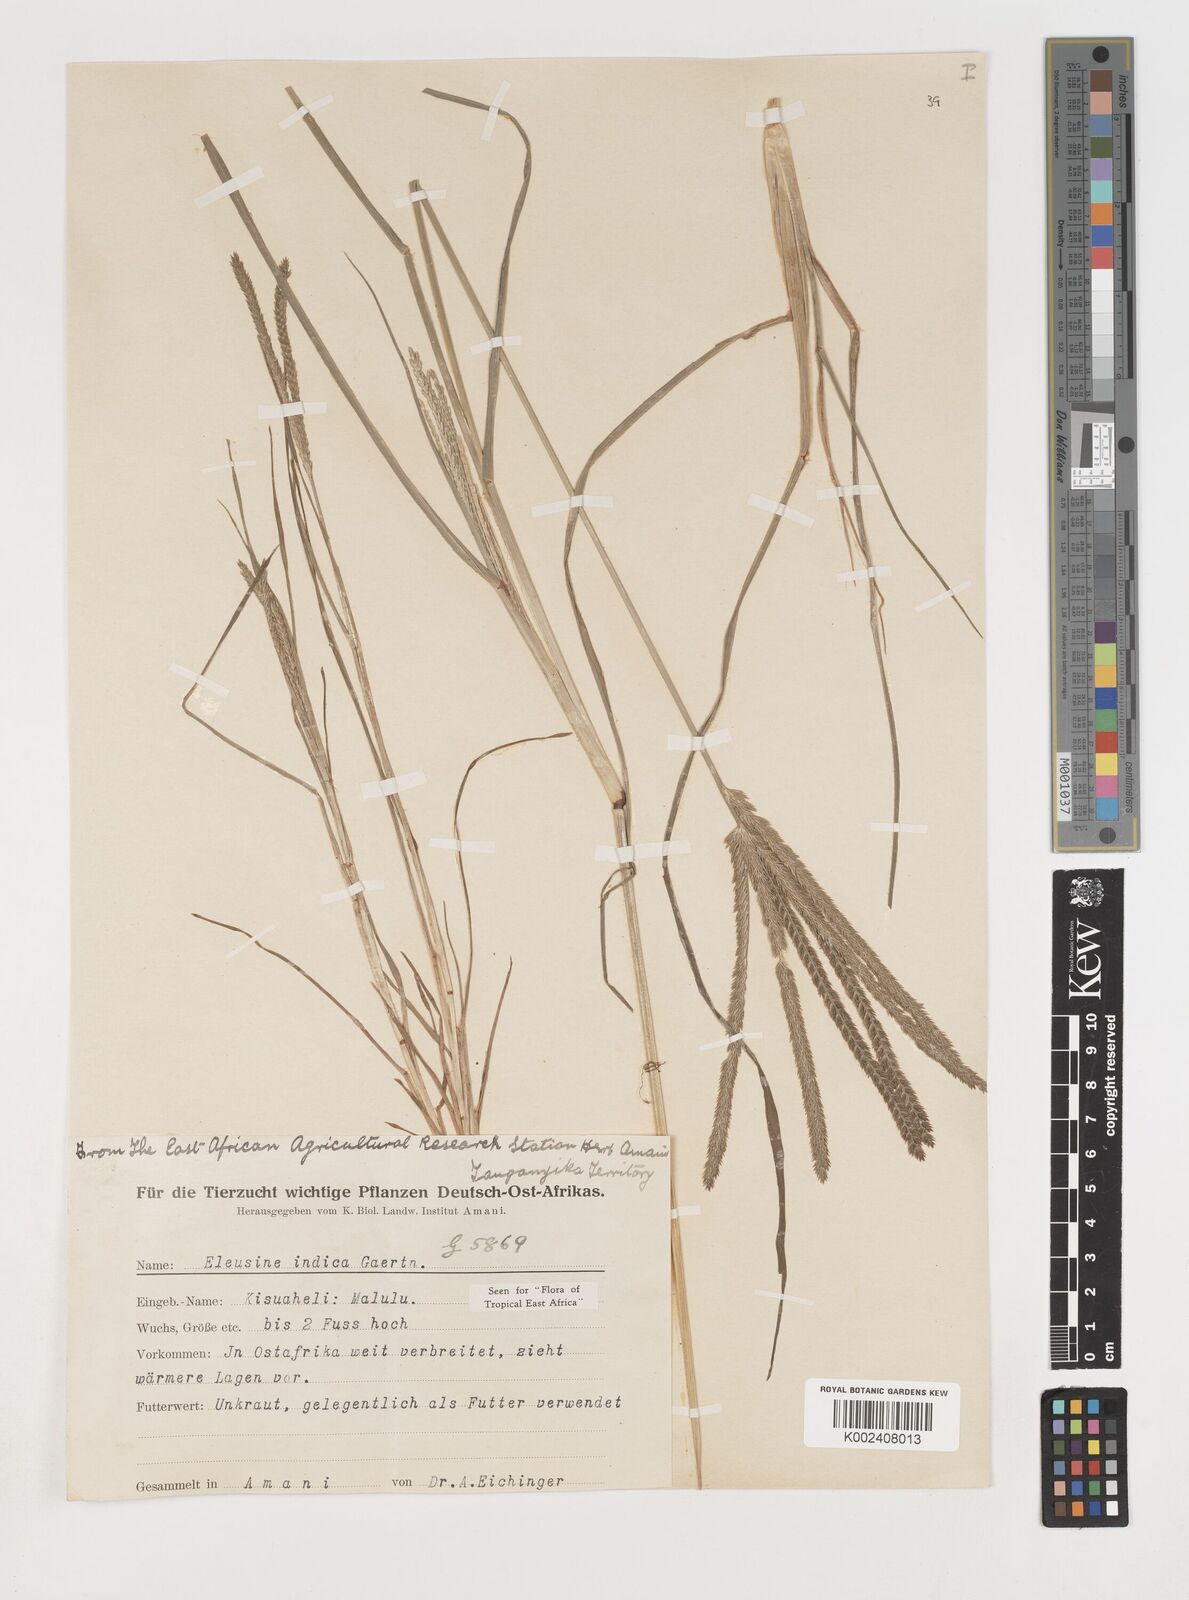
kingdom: Plantae
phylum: Tracheophyta
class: Liliopsida
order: Poales
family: Poaceae
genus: Eleusine
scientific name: Eleusine indica
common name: Yard-grass
